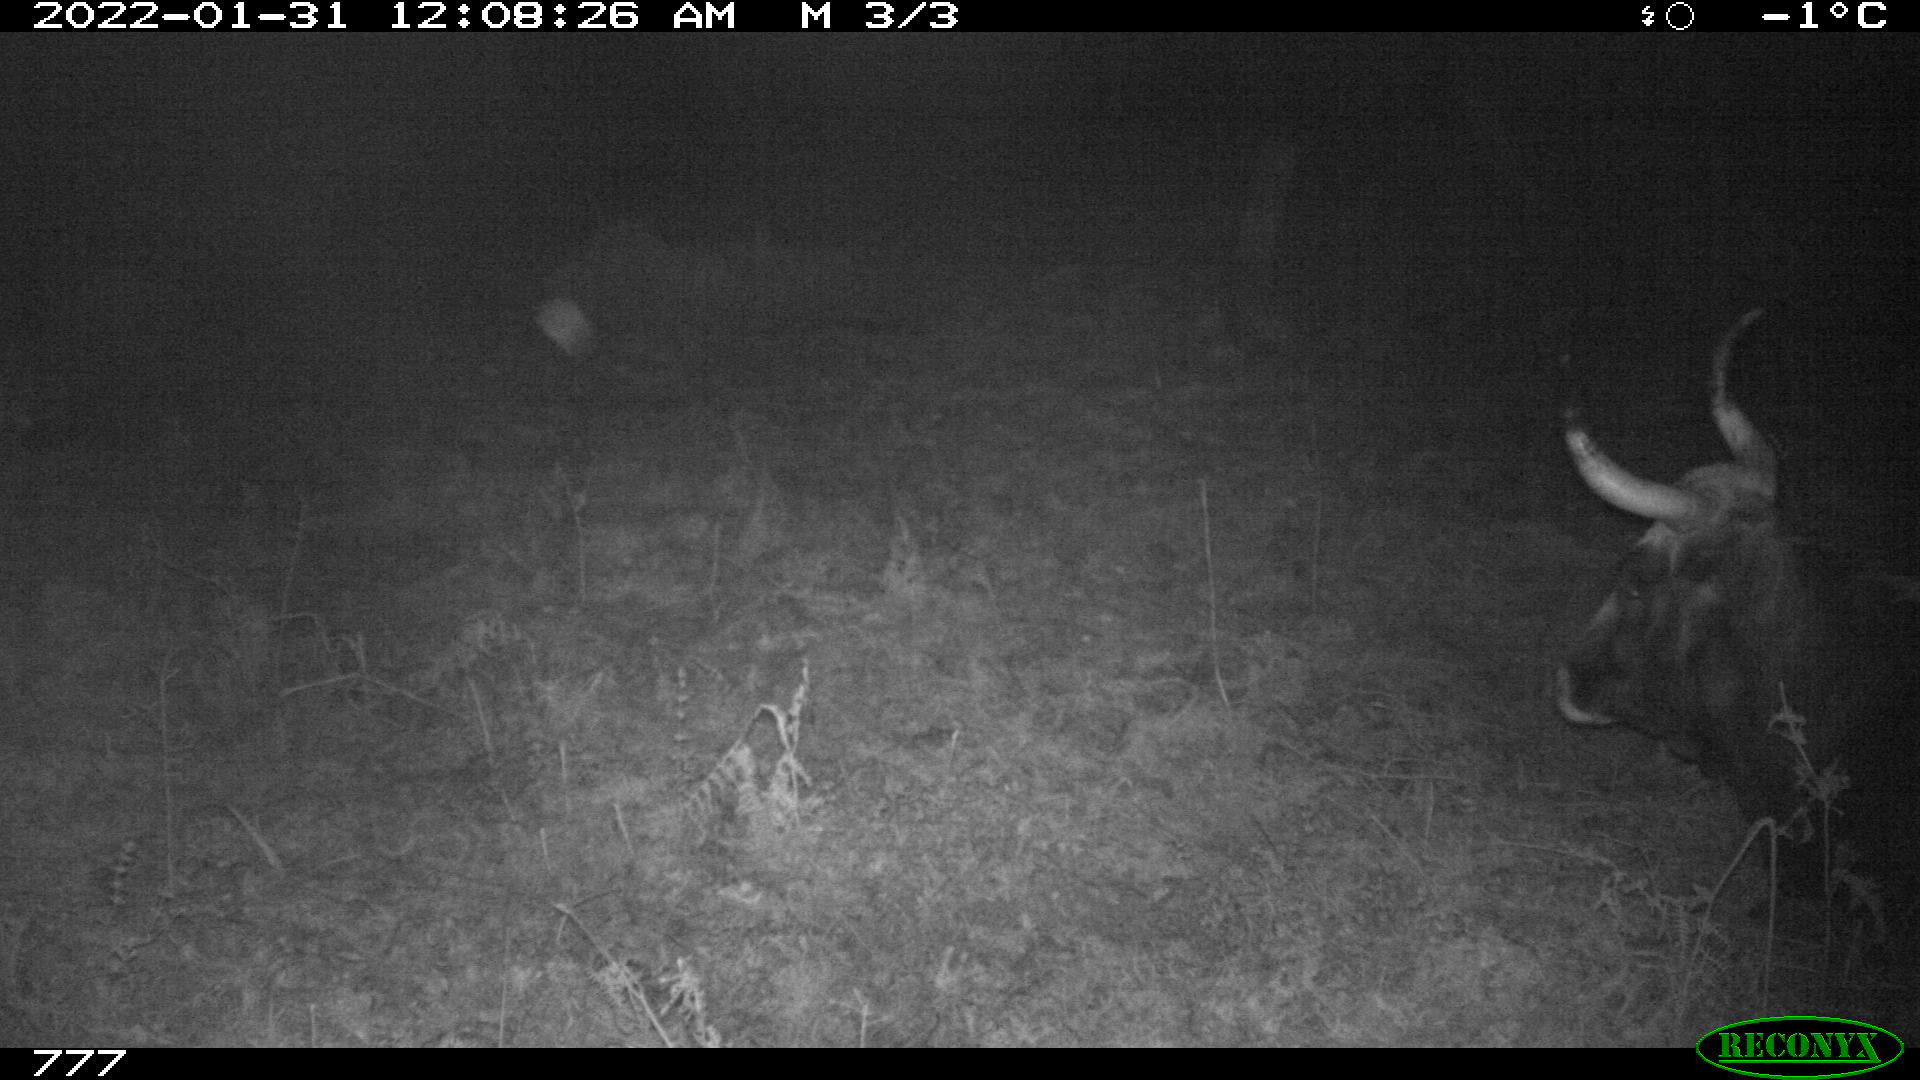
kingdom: Animalia
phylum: Chordata
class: Mammalia
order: Artiodactyla
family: Bovidae
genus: Bos
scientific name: Bos taurus
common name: Domesticated cattle
